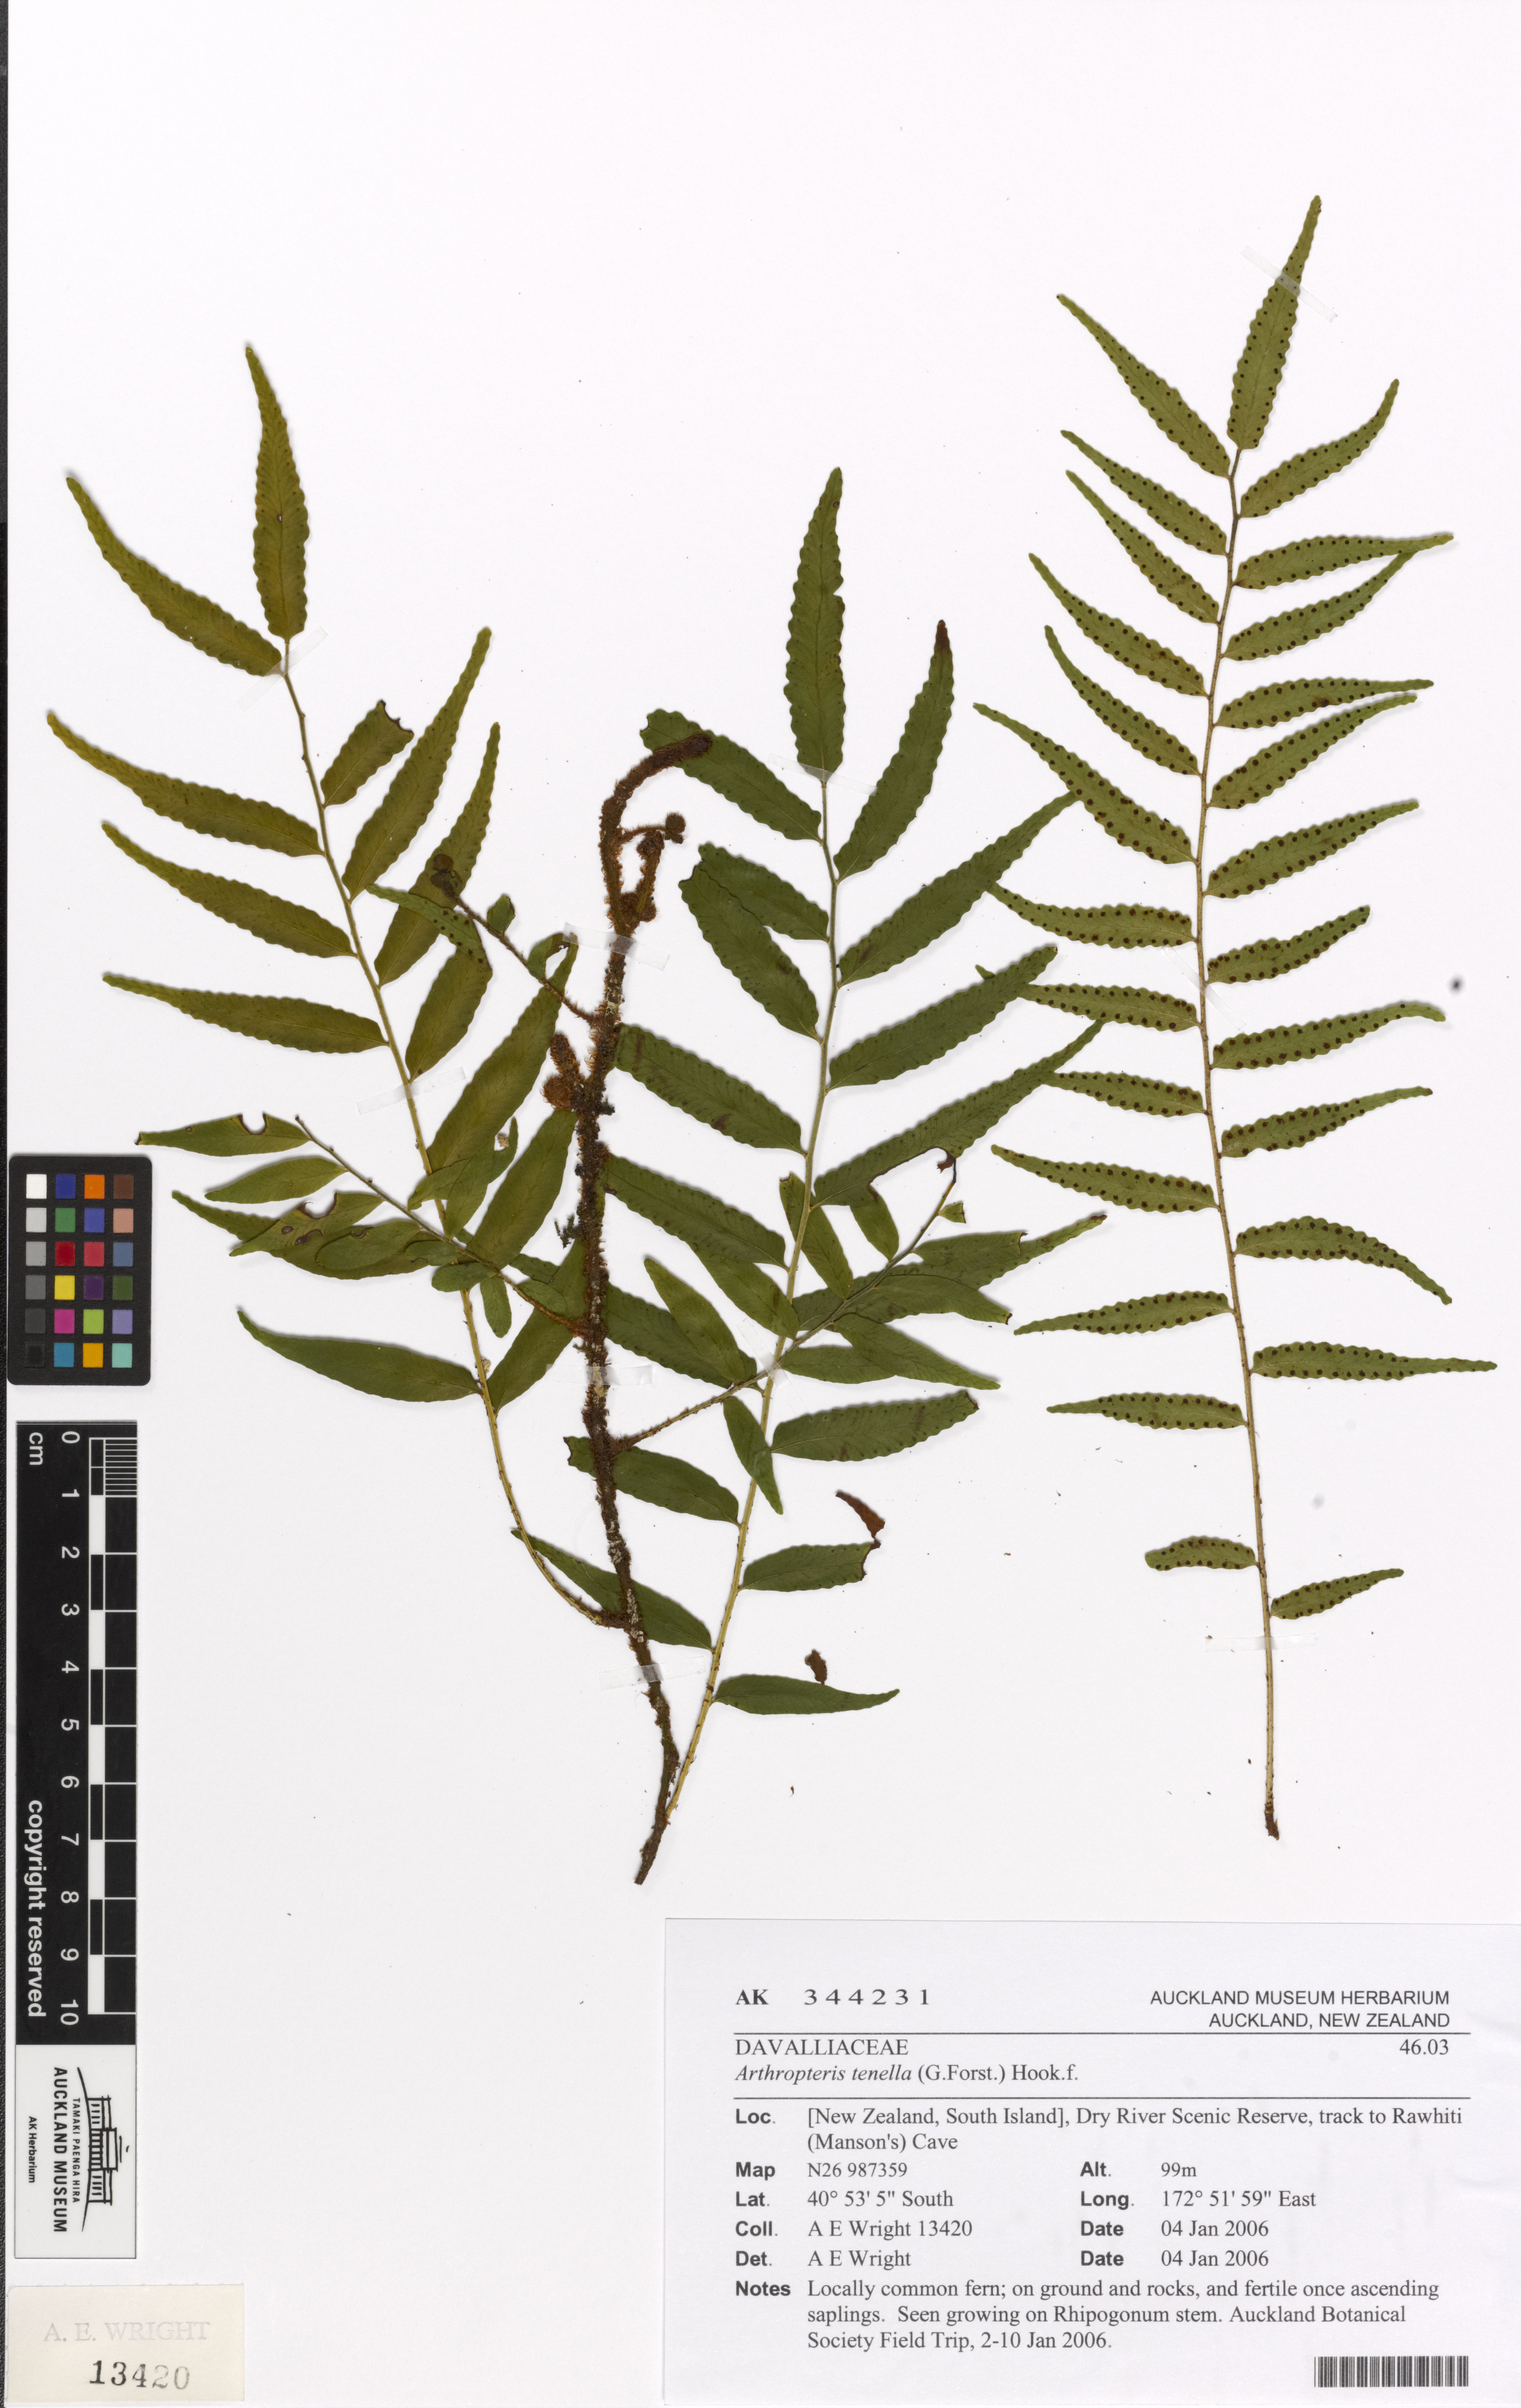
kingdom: Plantae
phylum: Tracheophyta
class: Polypodiopsida
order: Polypodiales
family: Tectariaceae
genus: Arthropteris
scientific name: Arthropteris tenella
